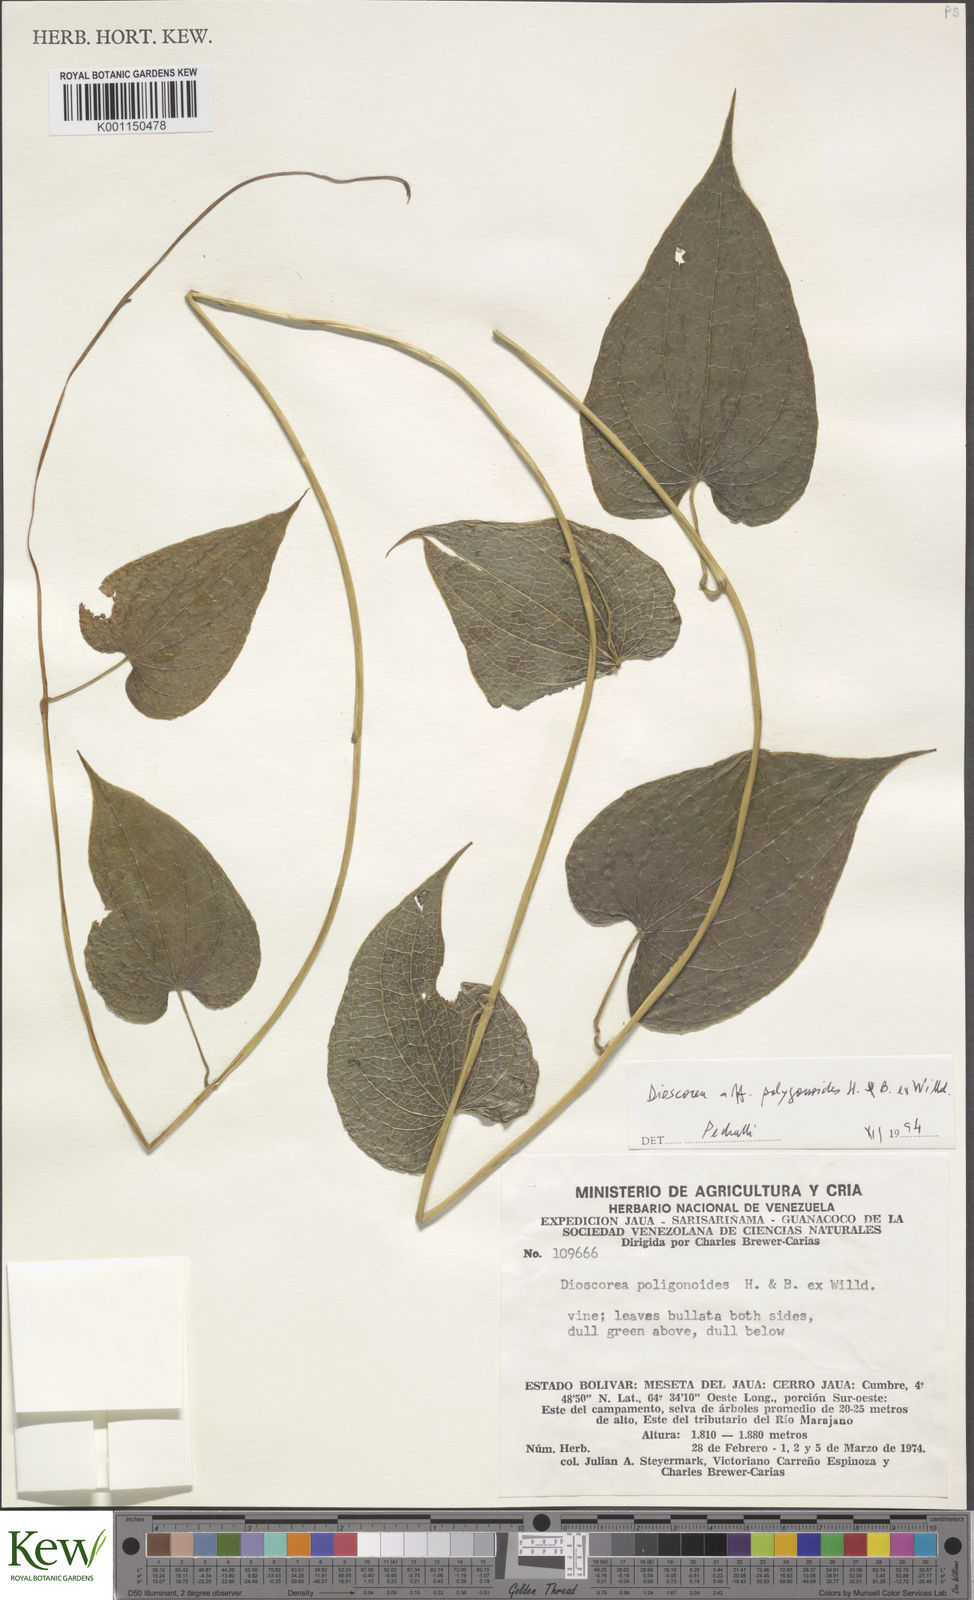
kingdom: Plantae
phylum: Tracheophyta
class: Liliopsida
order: Dioscoreales
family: Dioscoreaceae
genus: Dioscorea
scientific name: Dioscorea polygonoides
